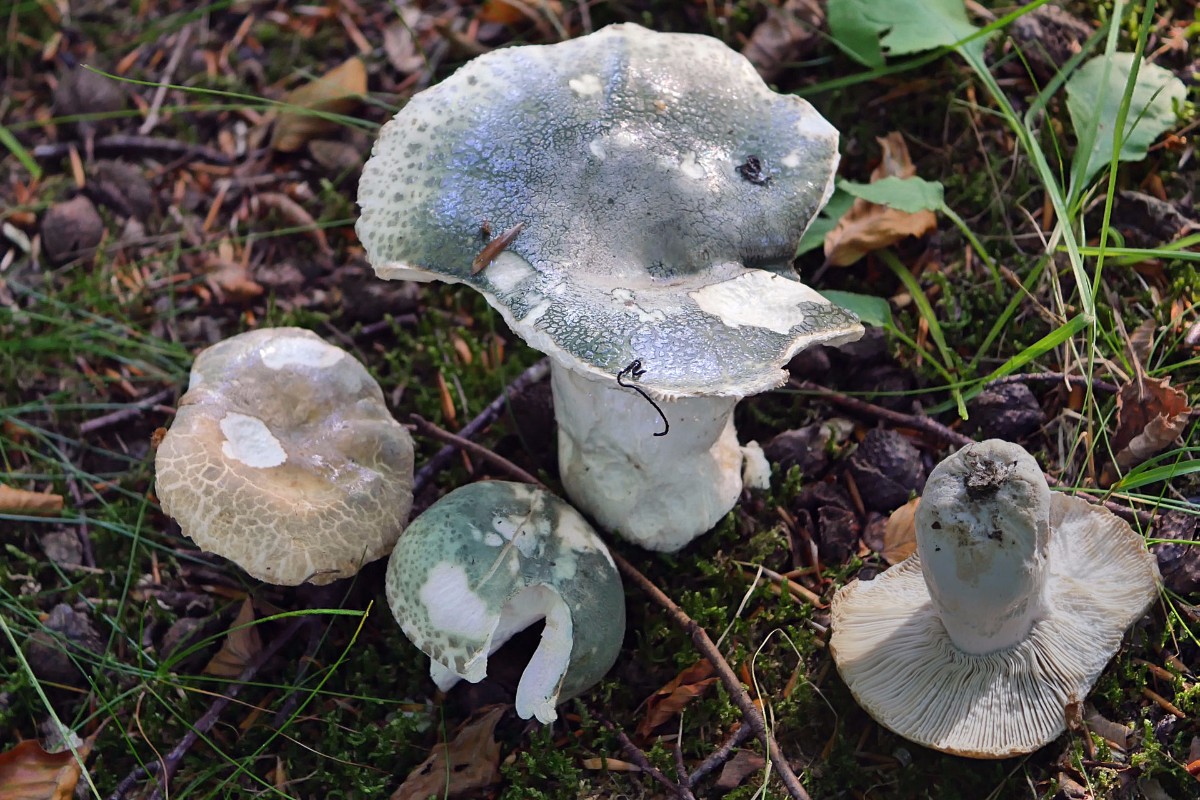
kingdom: Fungi
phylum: Basidiomycota
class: Agaricomycetes
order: Russulales
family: Russulaceae
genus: Russula
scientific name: Russula virescens
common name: spanskgrøn skørhat
